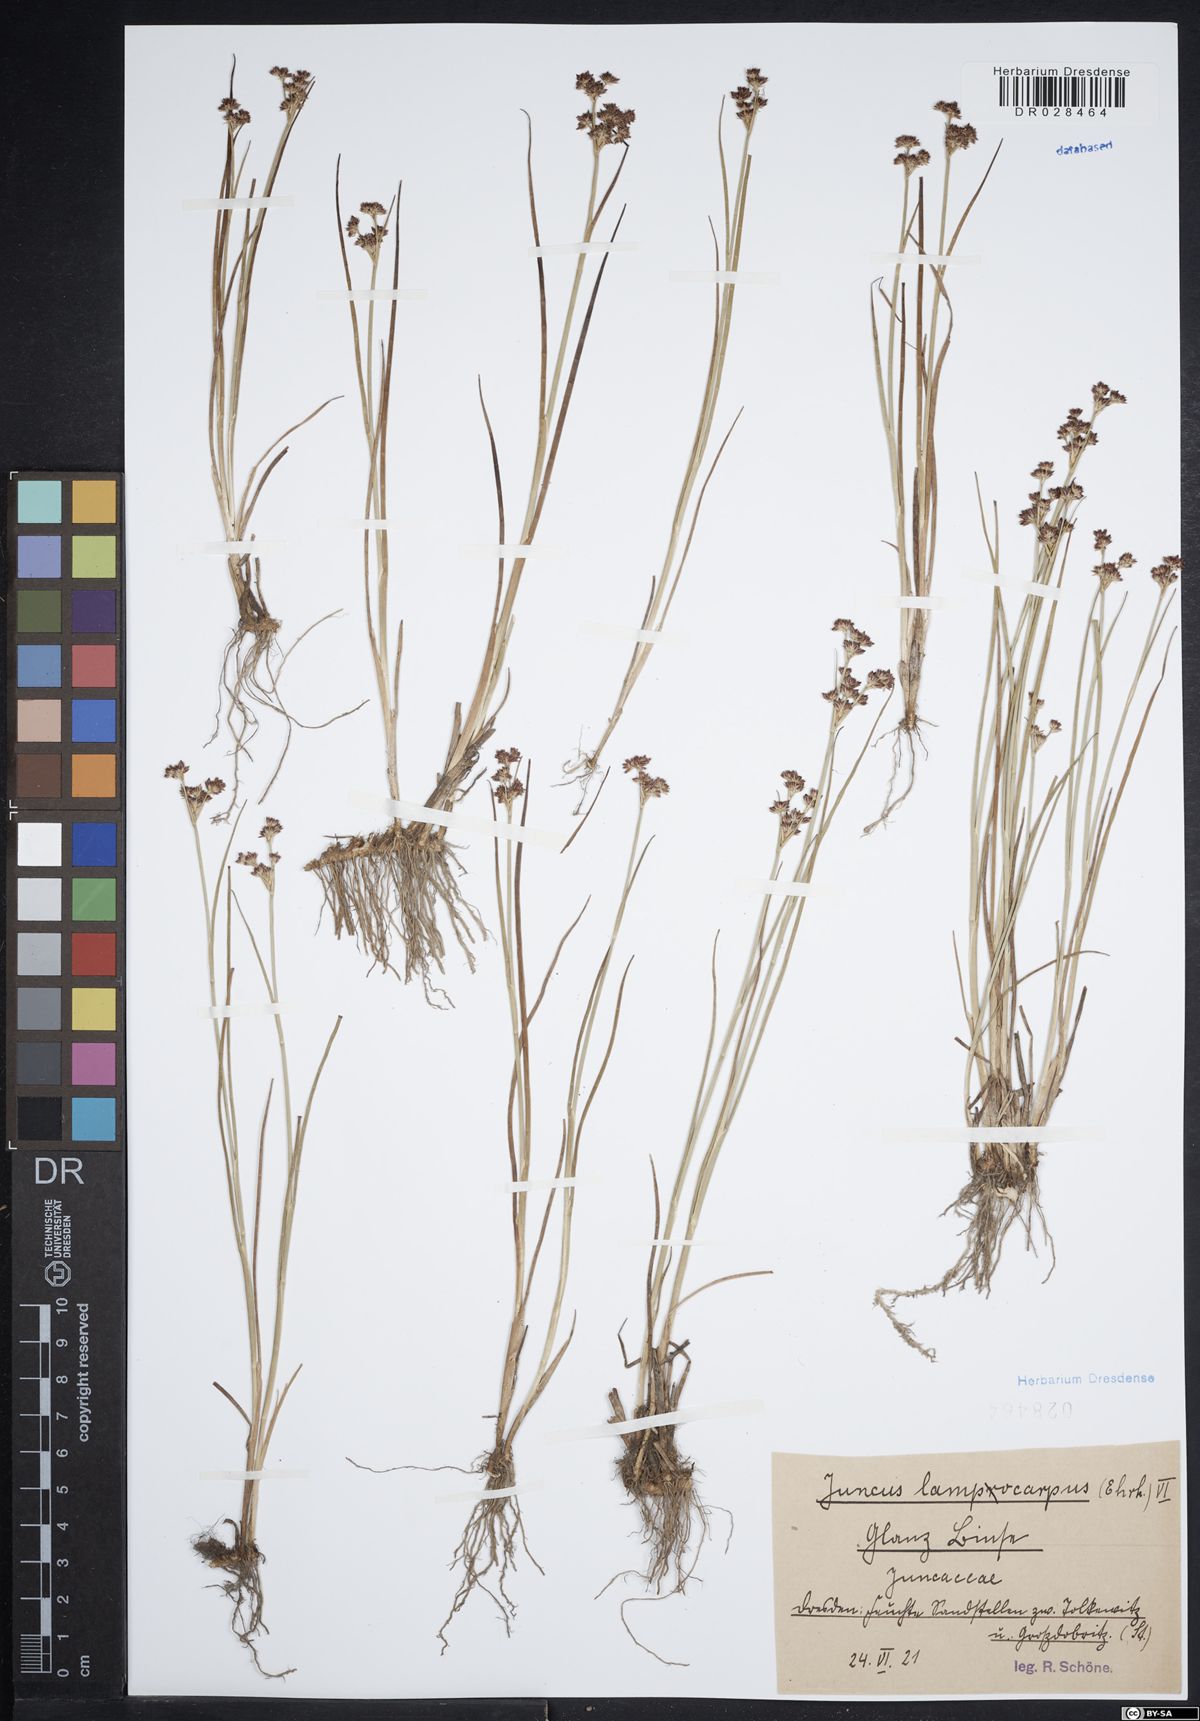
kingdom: Plantae
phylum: Tracheophyta
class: Liliopsida
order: Poales
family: Juncaceae
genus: Juncus
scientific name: Juncus articulatus
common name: Jointed rush
